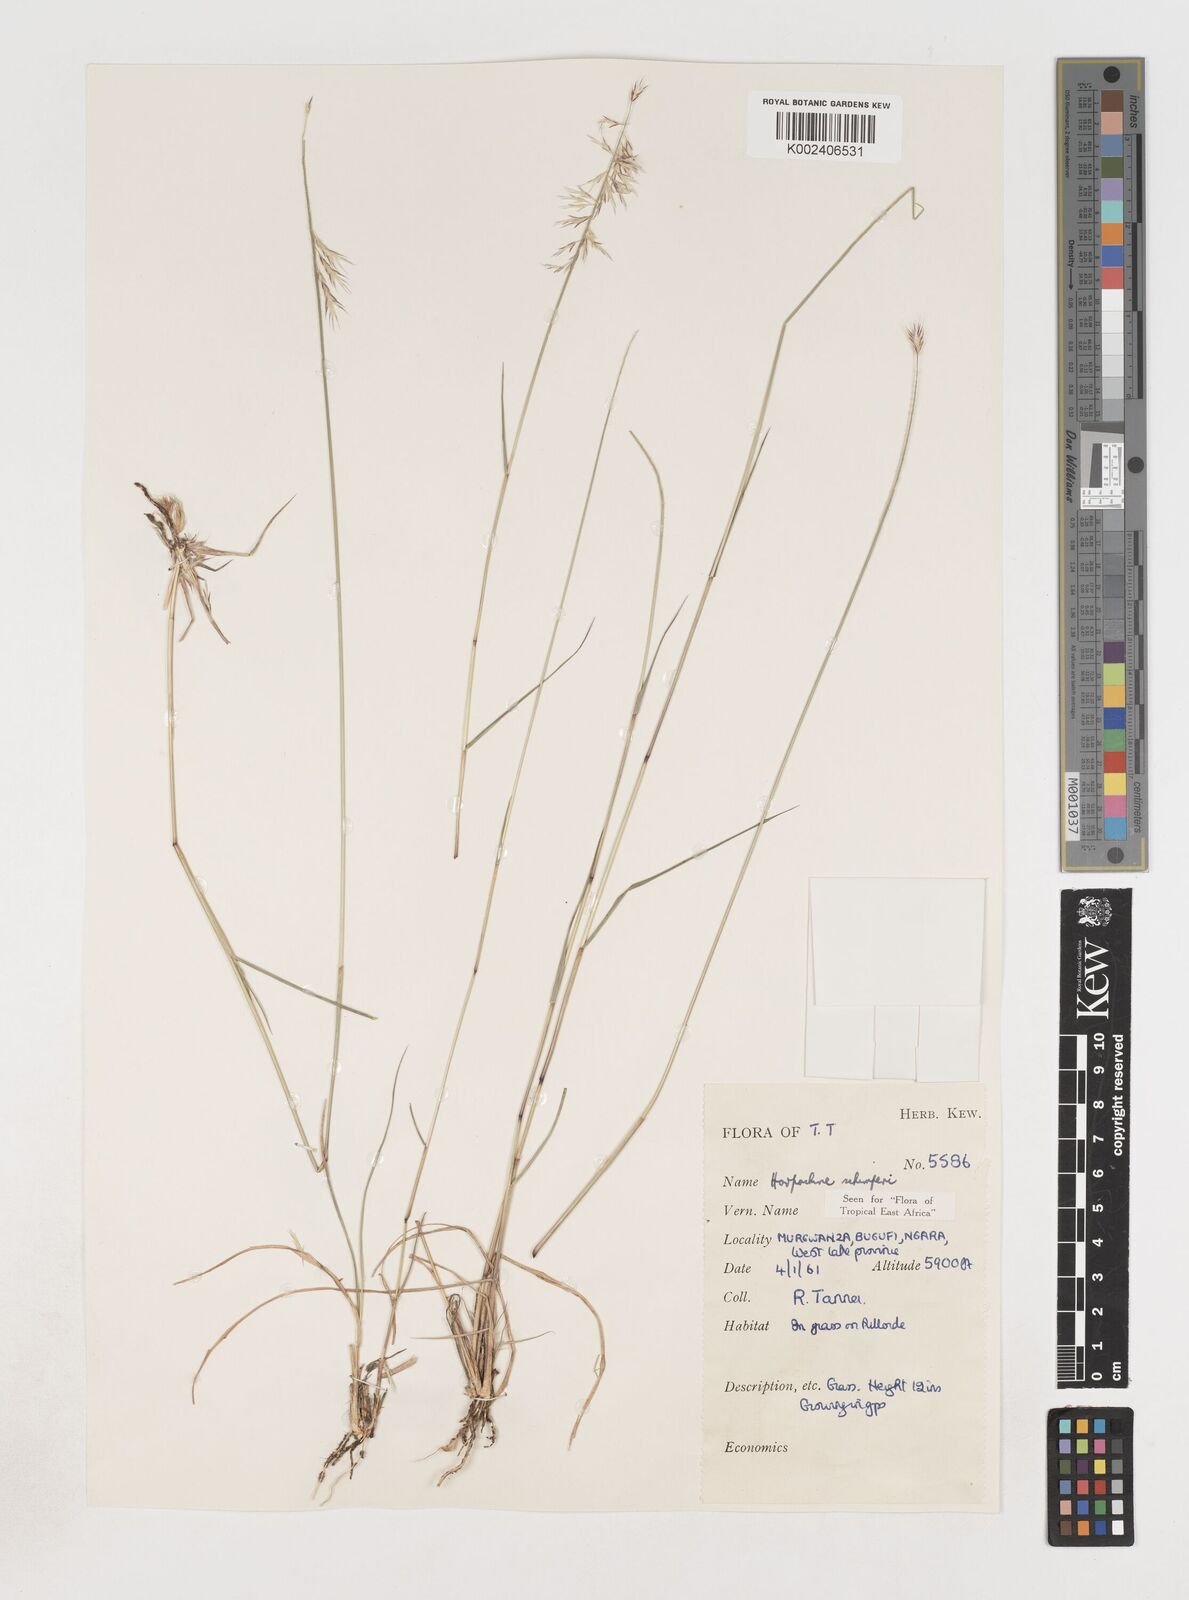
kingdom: Plantae
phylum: Tracheophyta
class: Liliopsida
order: Poales
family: Poaceae
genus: Harpachne
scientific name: Harpachne schimperi
